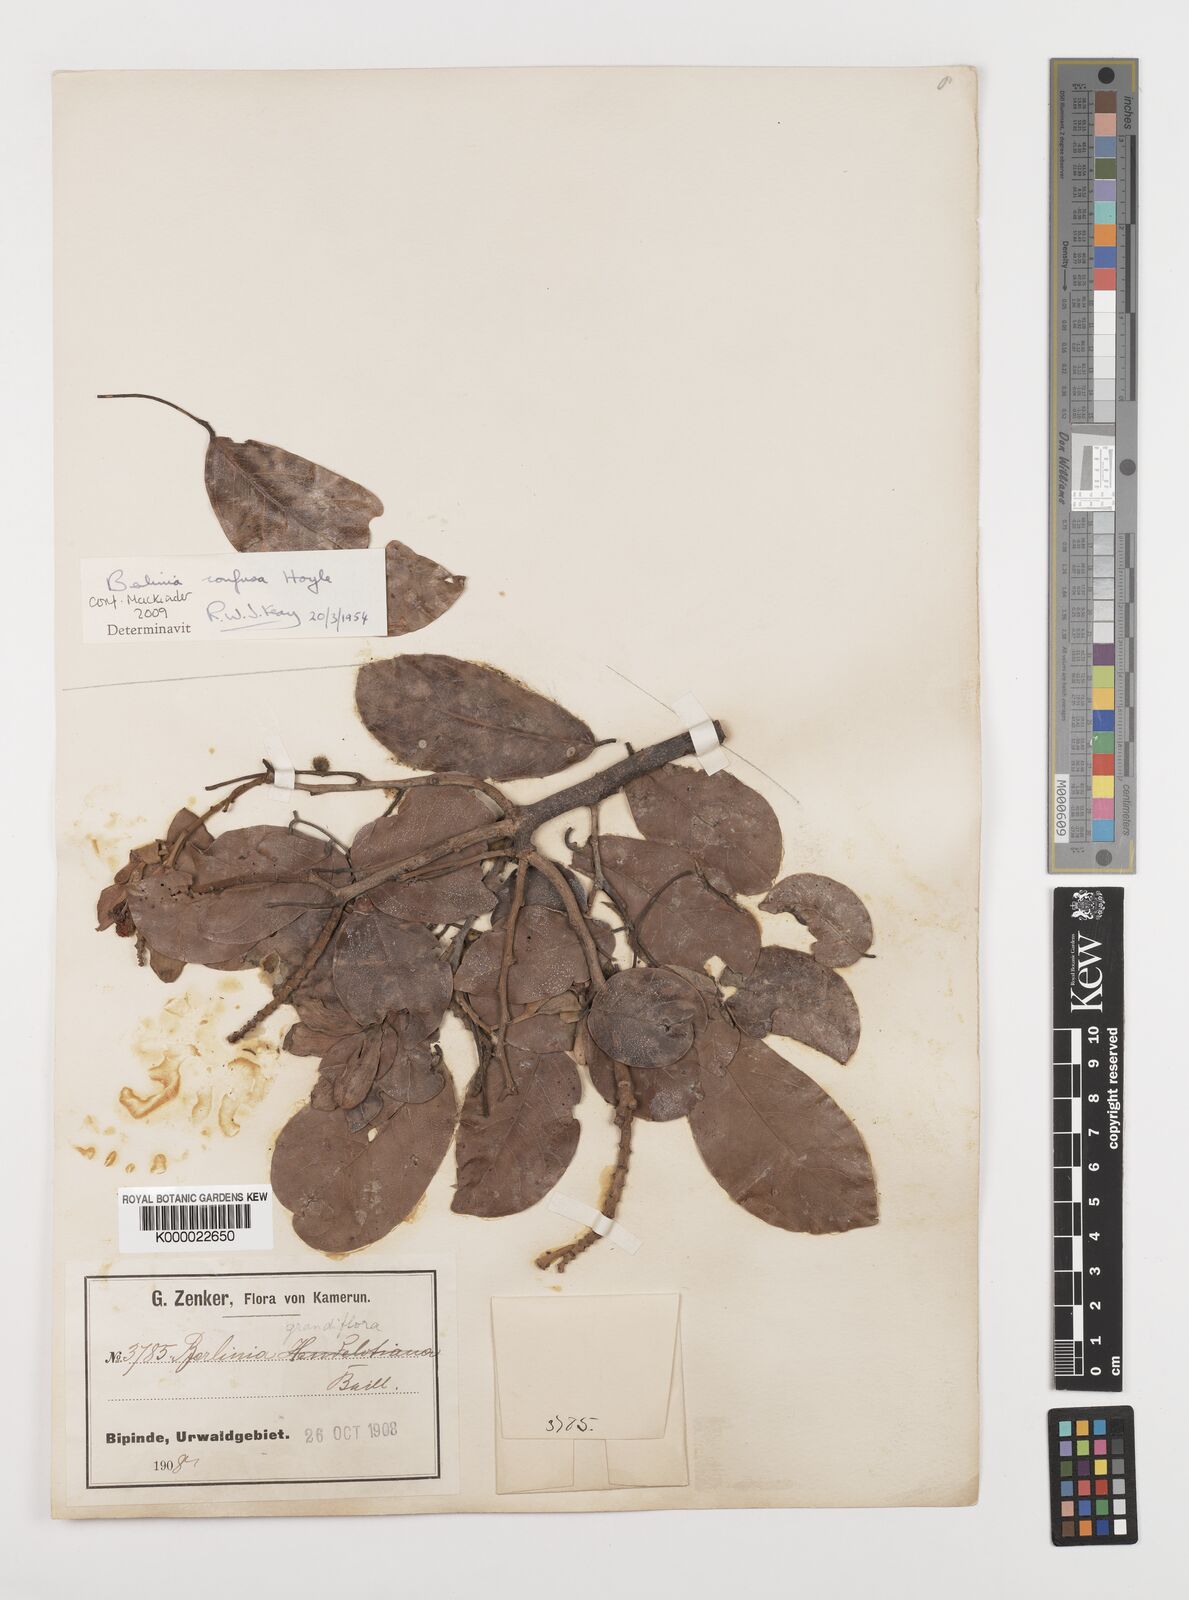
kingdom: Plantae
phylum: Tracheophyta
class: Magnoliopsida
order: Fabales
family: Fabaceae
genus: Berlinia
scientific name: Berlinia confusa
